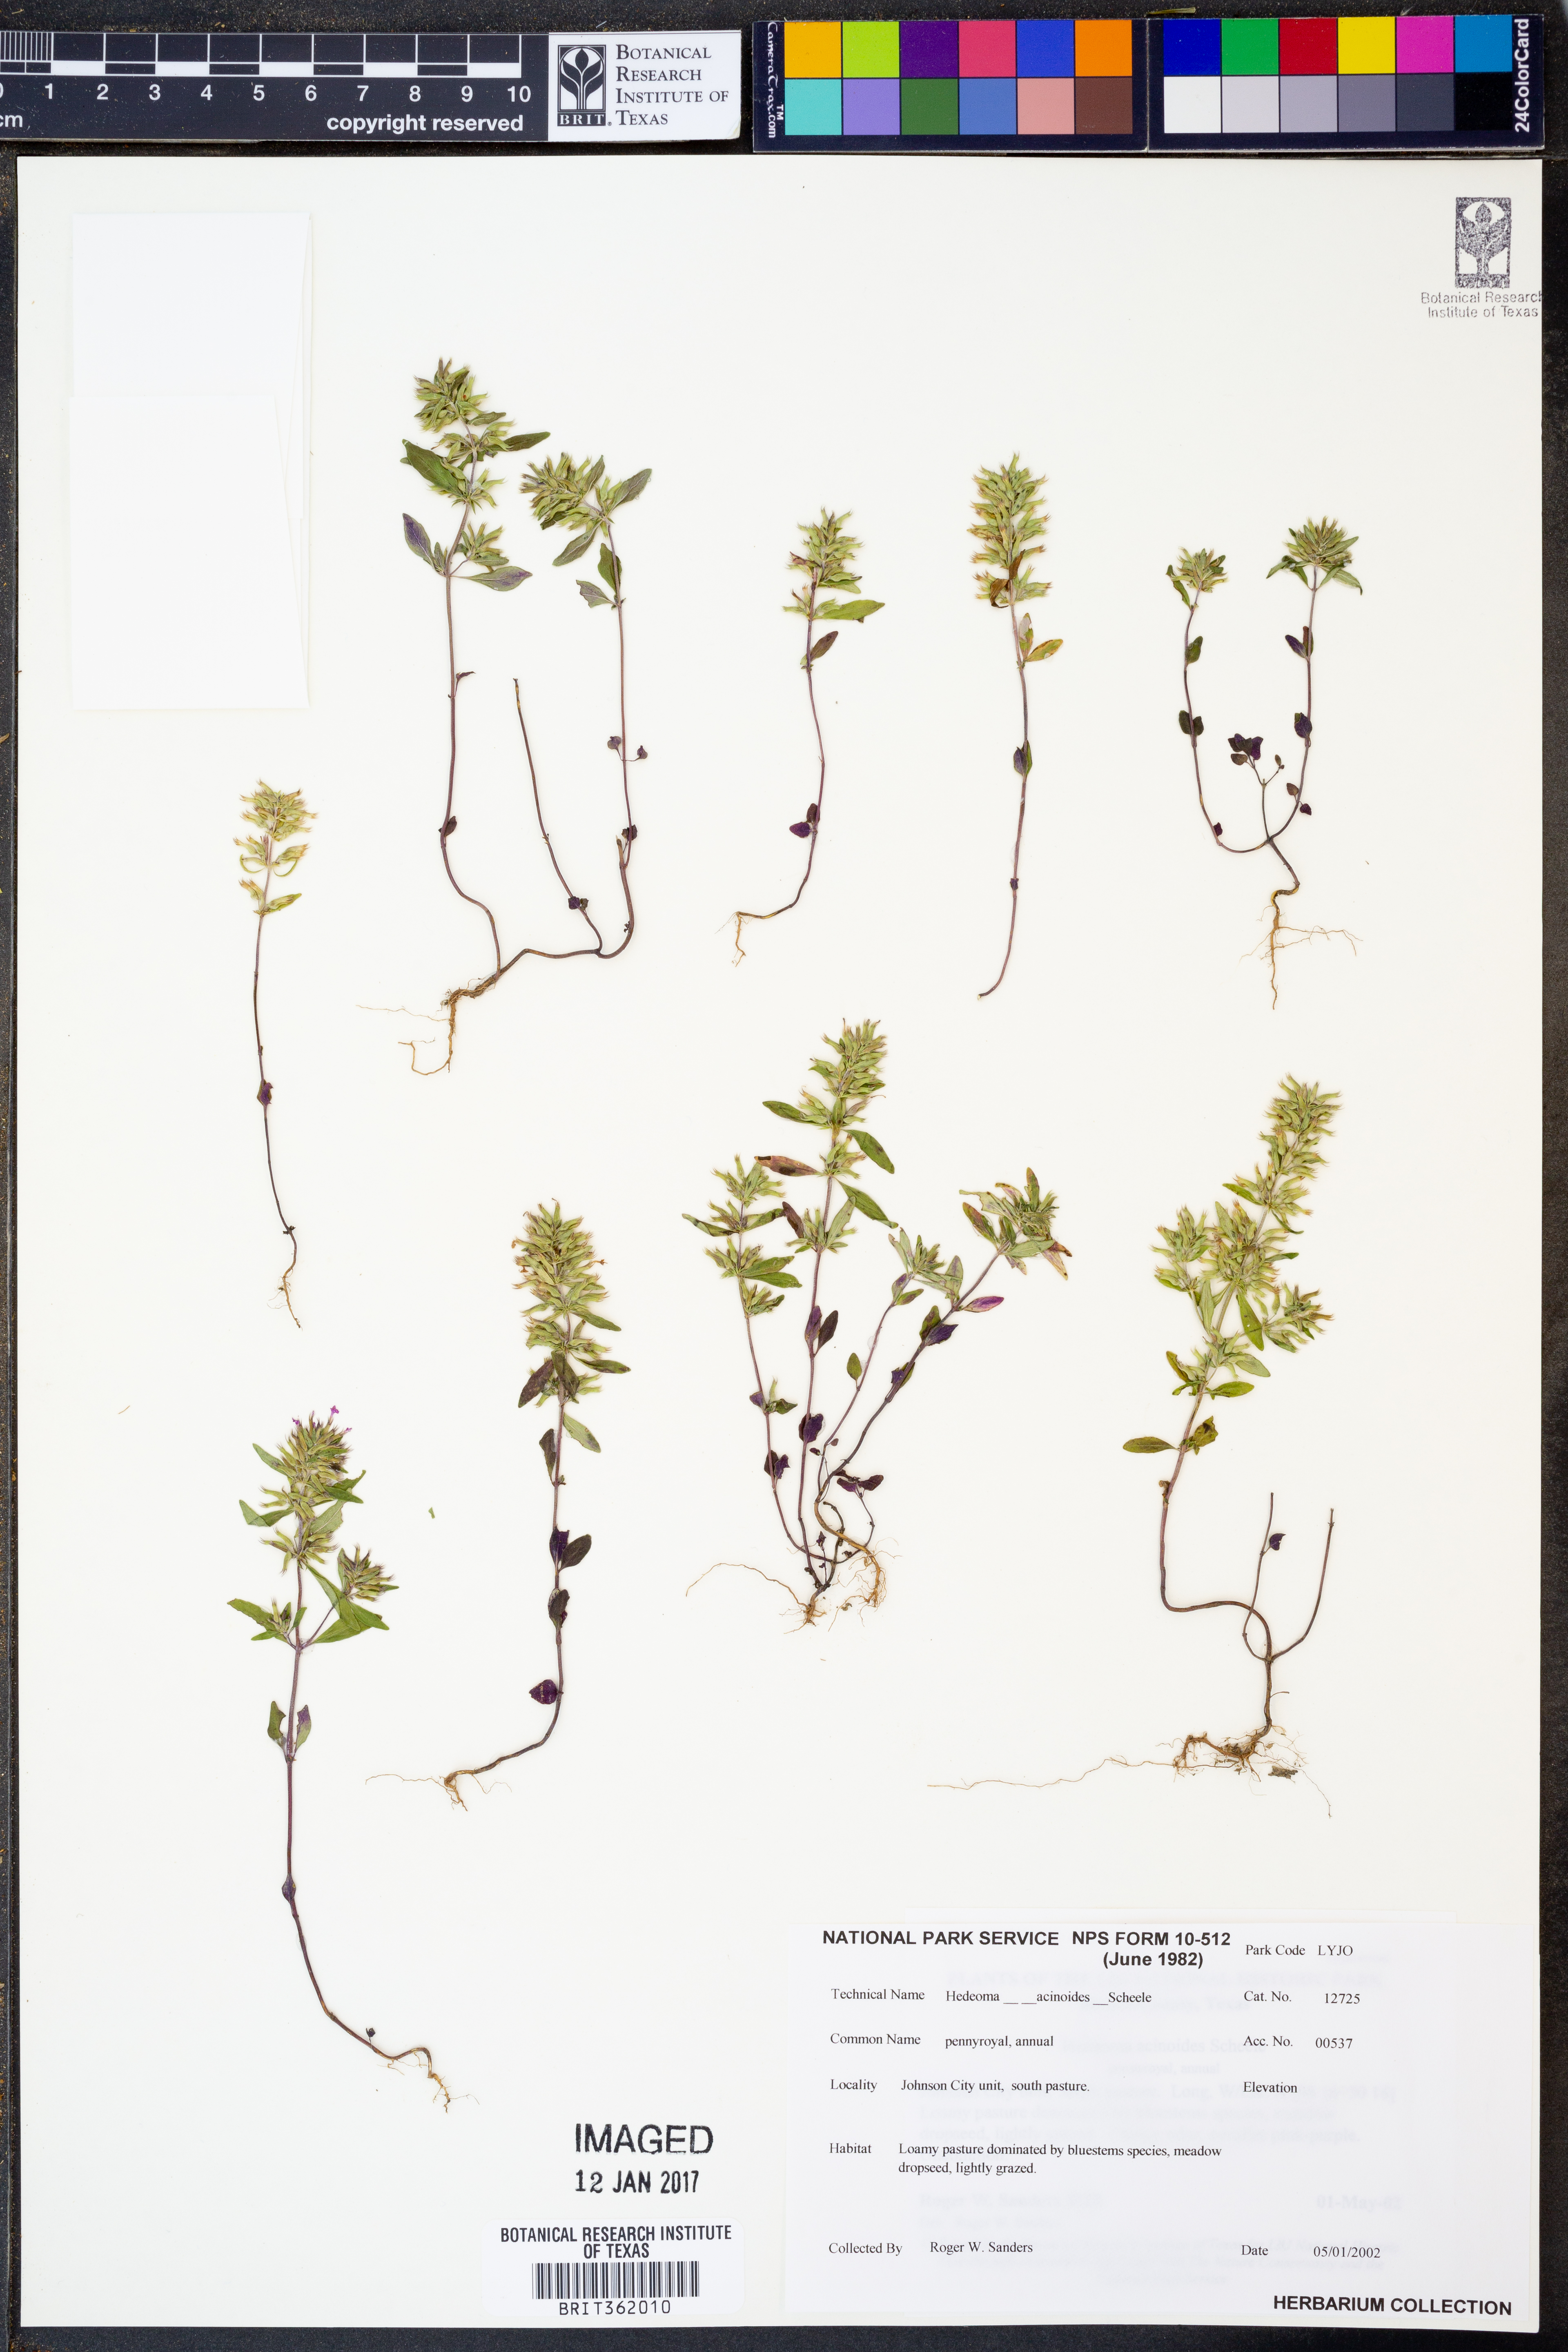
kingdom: Plantae
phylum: Tracheophyta
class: Magnoliopsida
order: Lamiales
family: Lamiaceae
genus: Hedeoma
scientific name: Hedeoma acinoides
